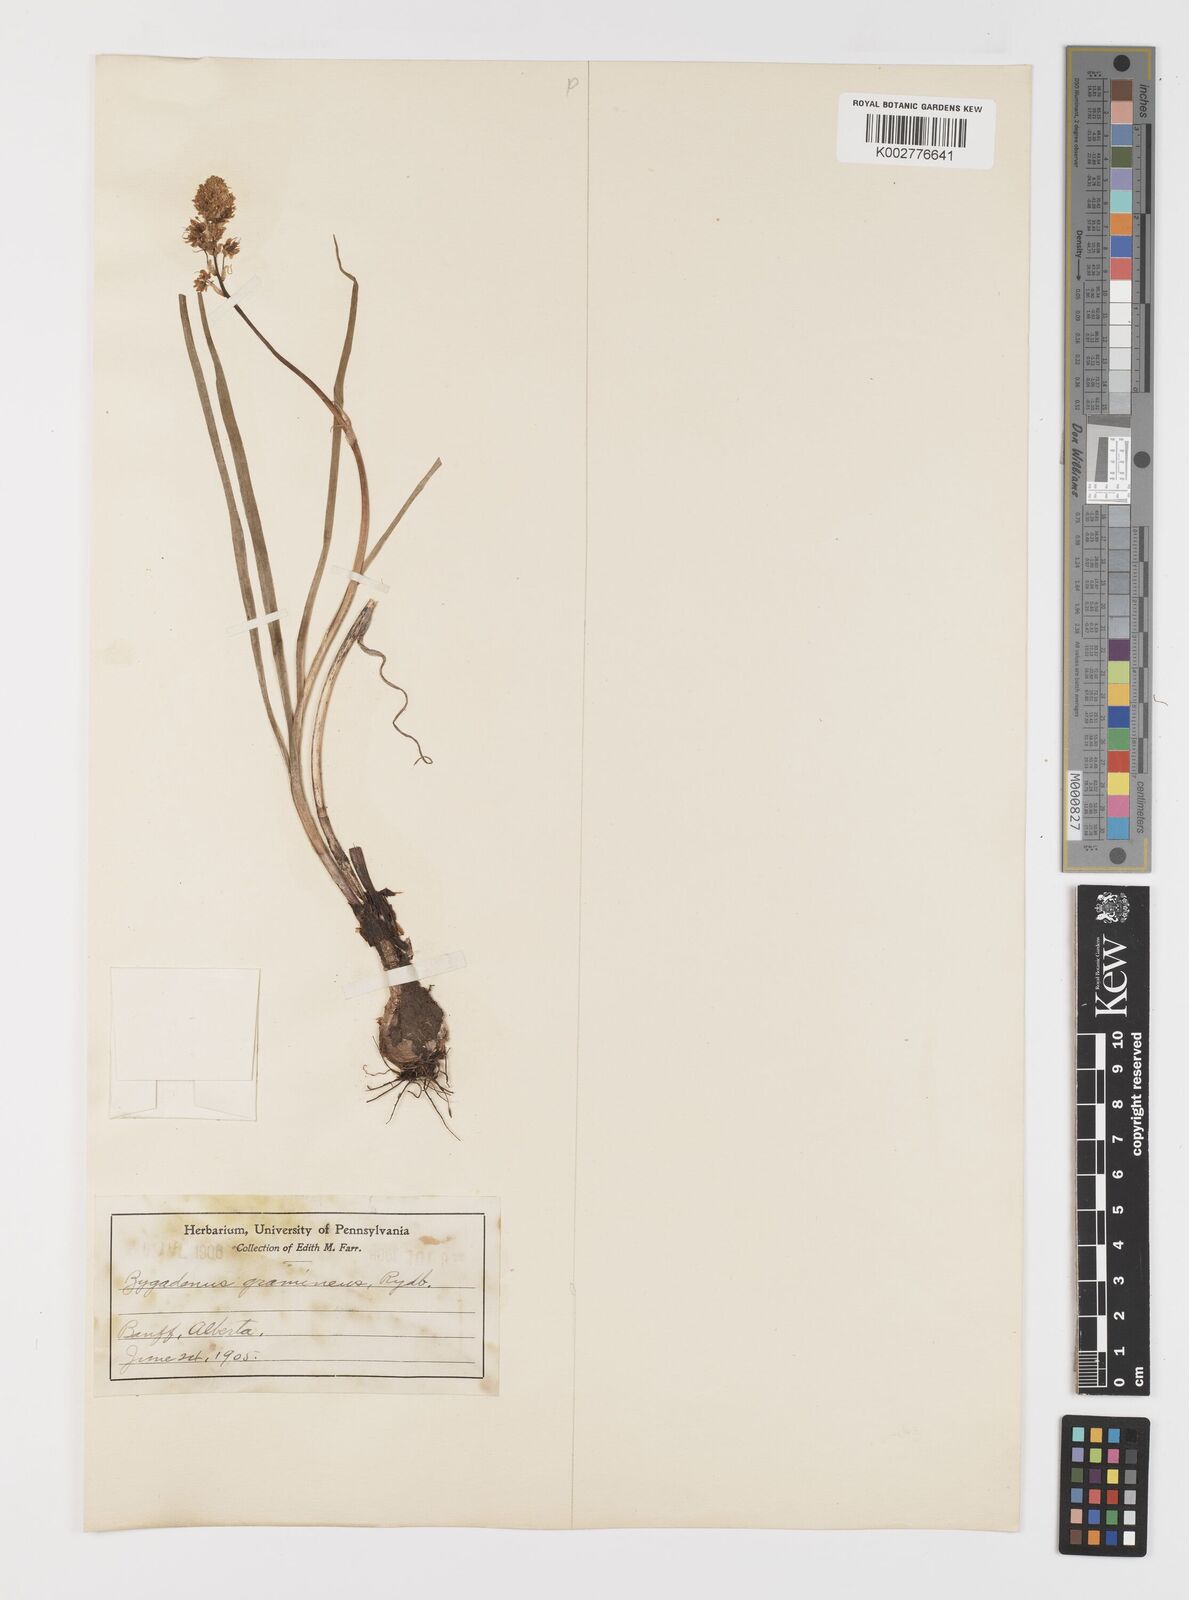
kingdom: Plantae
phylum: Tracheophyta
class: Liliopsida
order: Liliales
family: Melanthiaceae
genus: Toxicoscordion
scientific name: Toxicoscordion venenosum
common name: Meadow death camas
